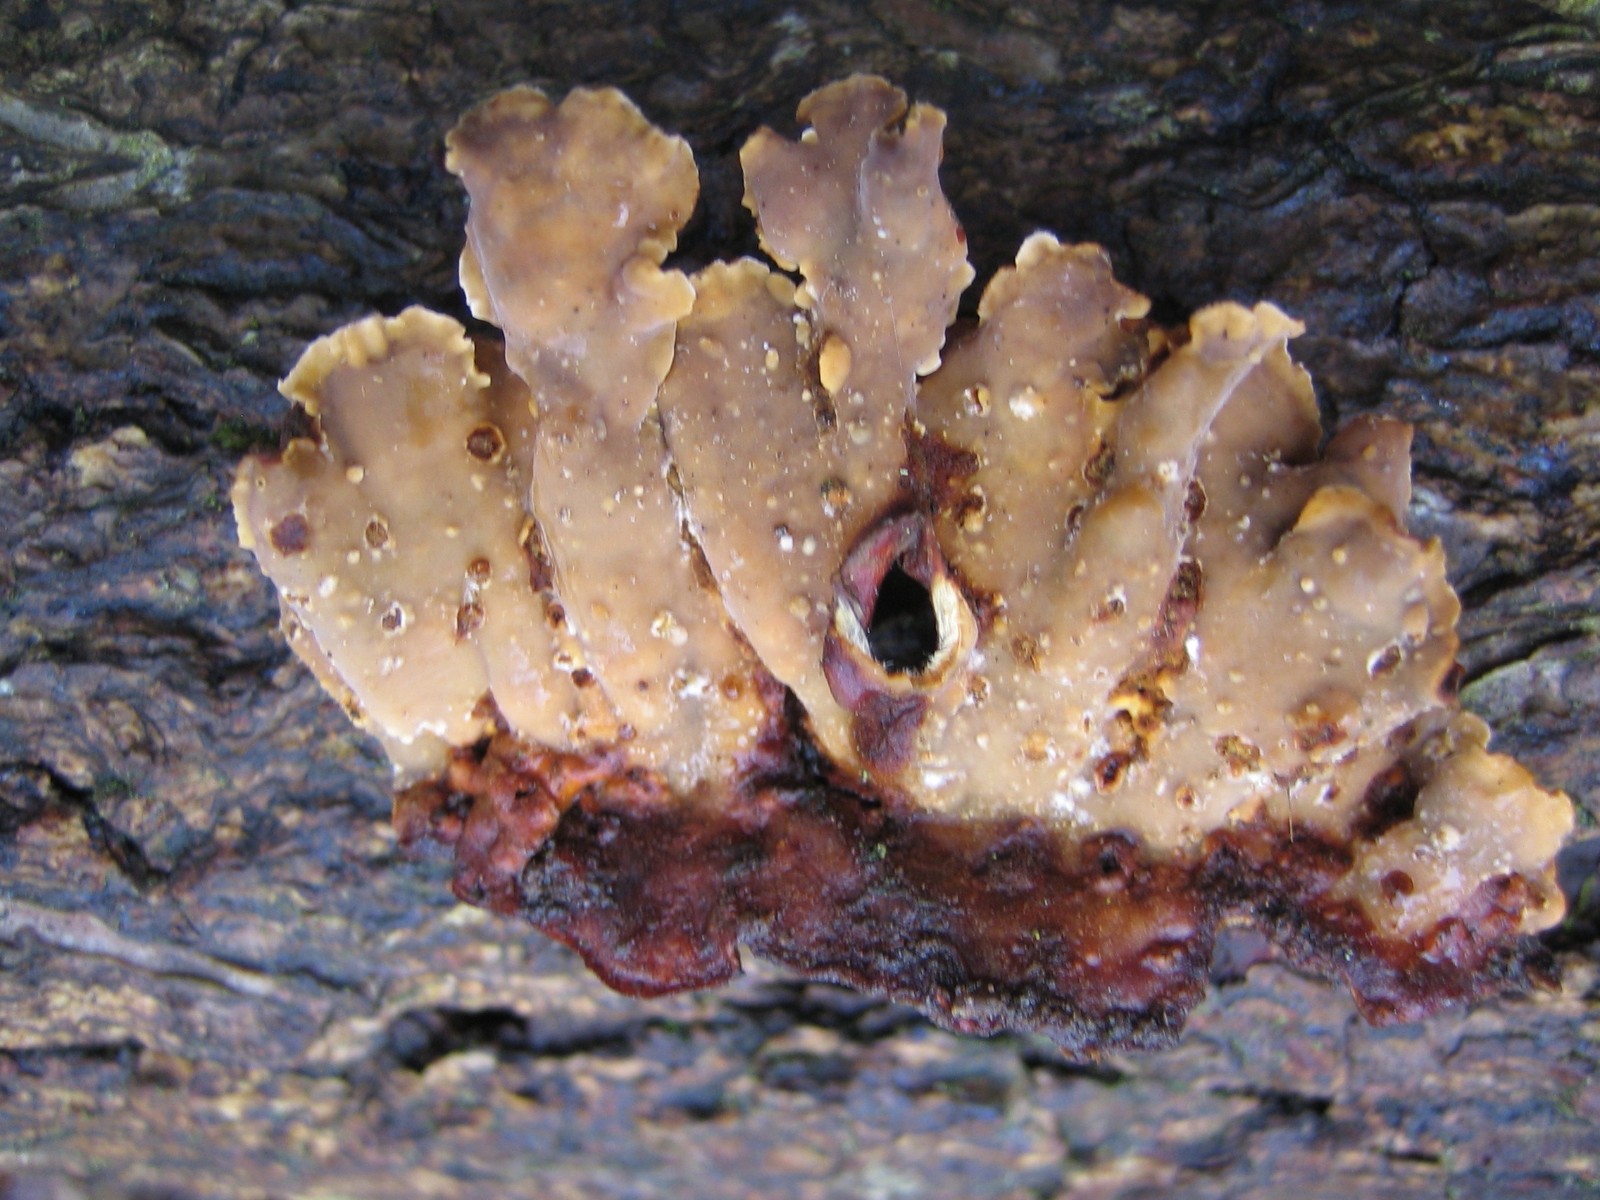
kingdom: Fungi
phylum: Basidiomycota
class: Agaricomycetes
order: Russulales
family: Stereaceae
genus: Stereum
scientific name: Stereum hirsutum
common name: håret lædersvamp
